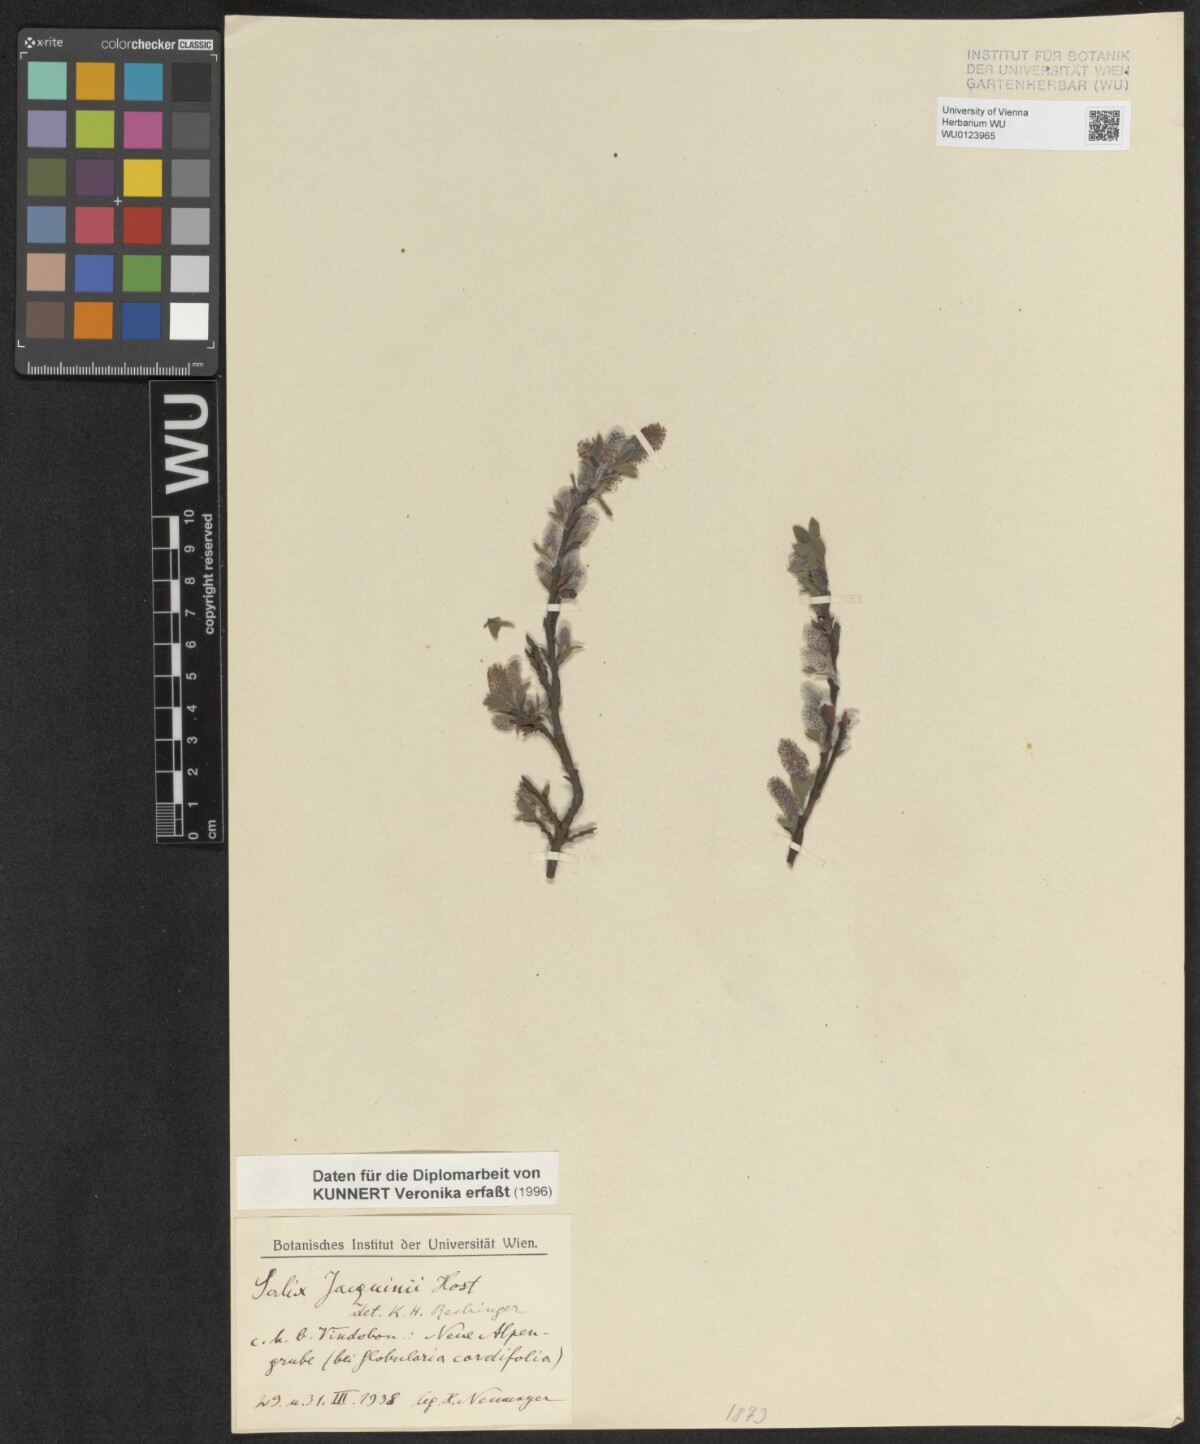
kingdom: Plantae
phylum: Tracheophyta
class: Magnoliopsida
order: Malpighiales
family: Salicaceae
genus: Salix
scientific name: Salix alpina
